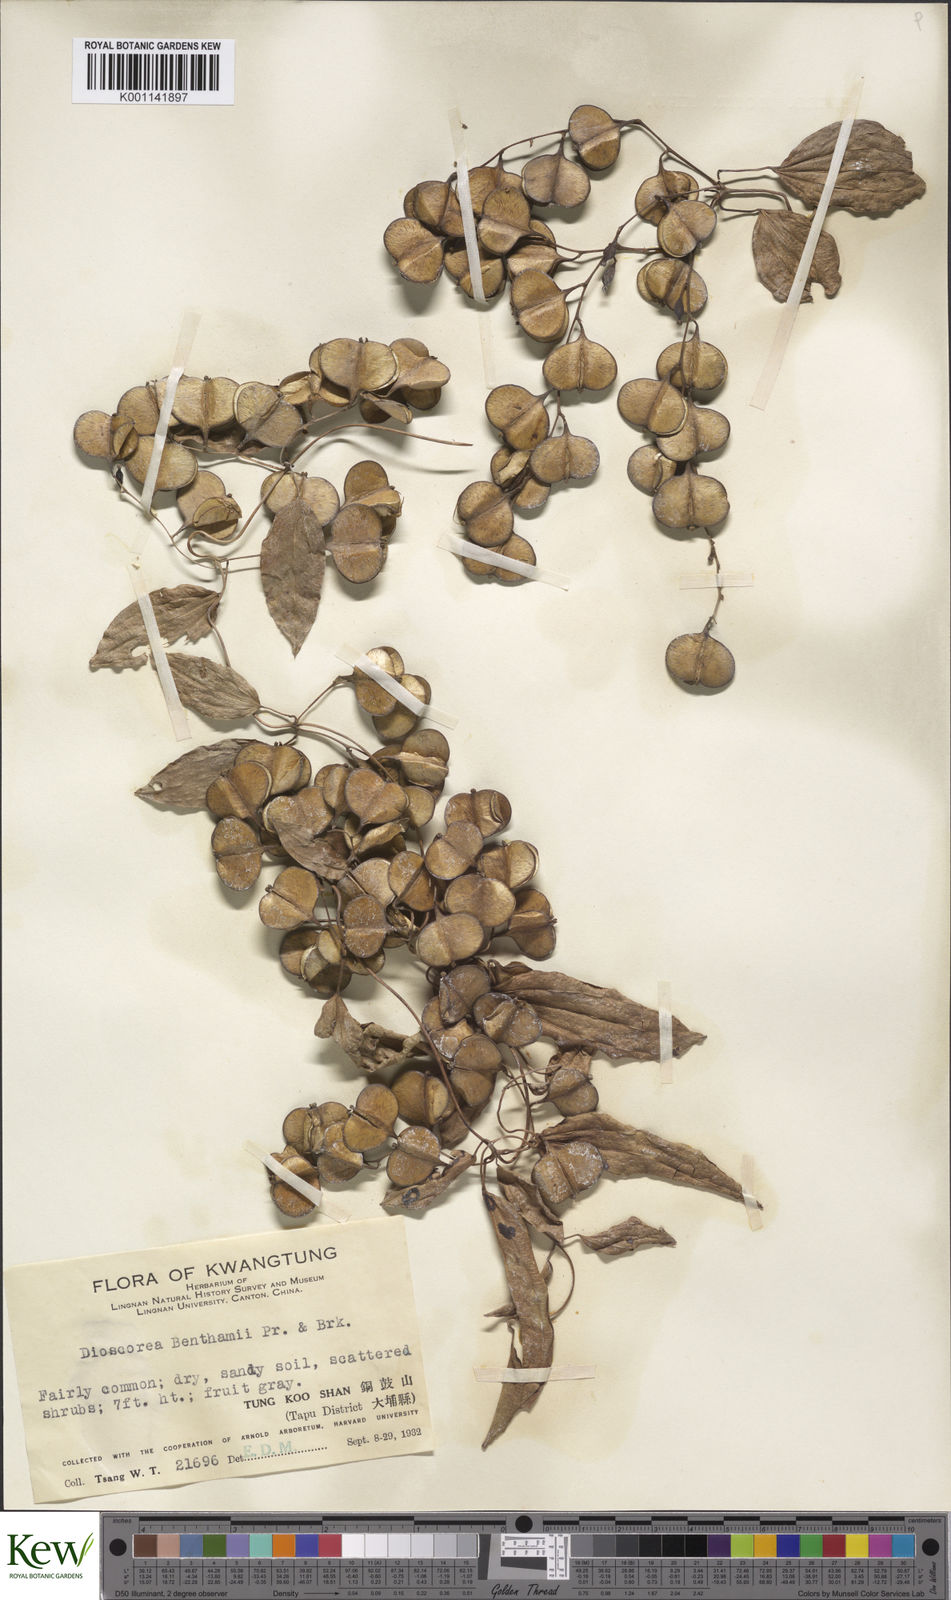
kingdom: Plantae
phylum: Tracheophyta
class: Liliopsida
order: Dioscoreales
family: Dioscoreaceae
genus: Dioscorea
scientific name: Dioscorea benthamii
